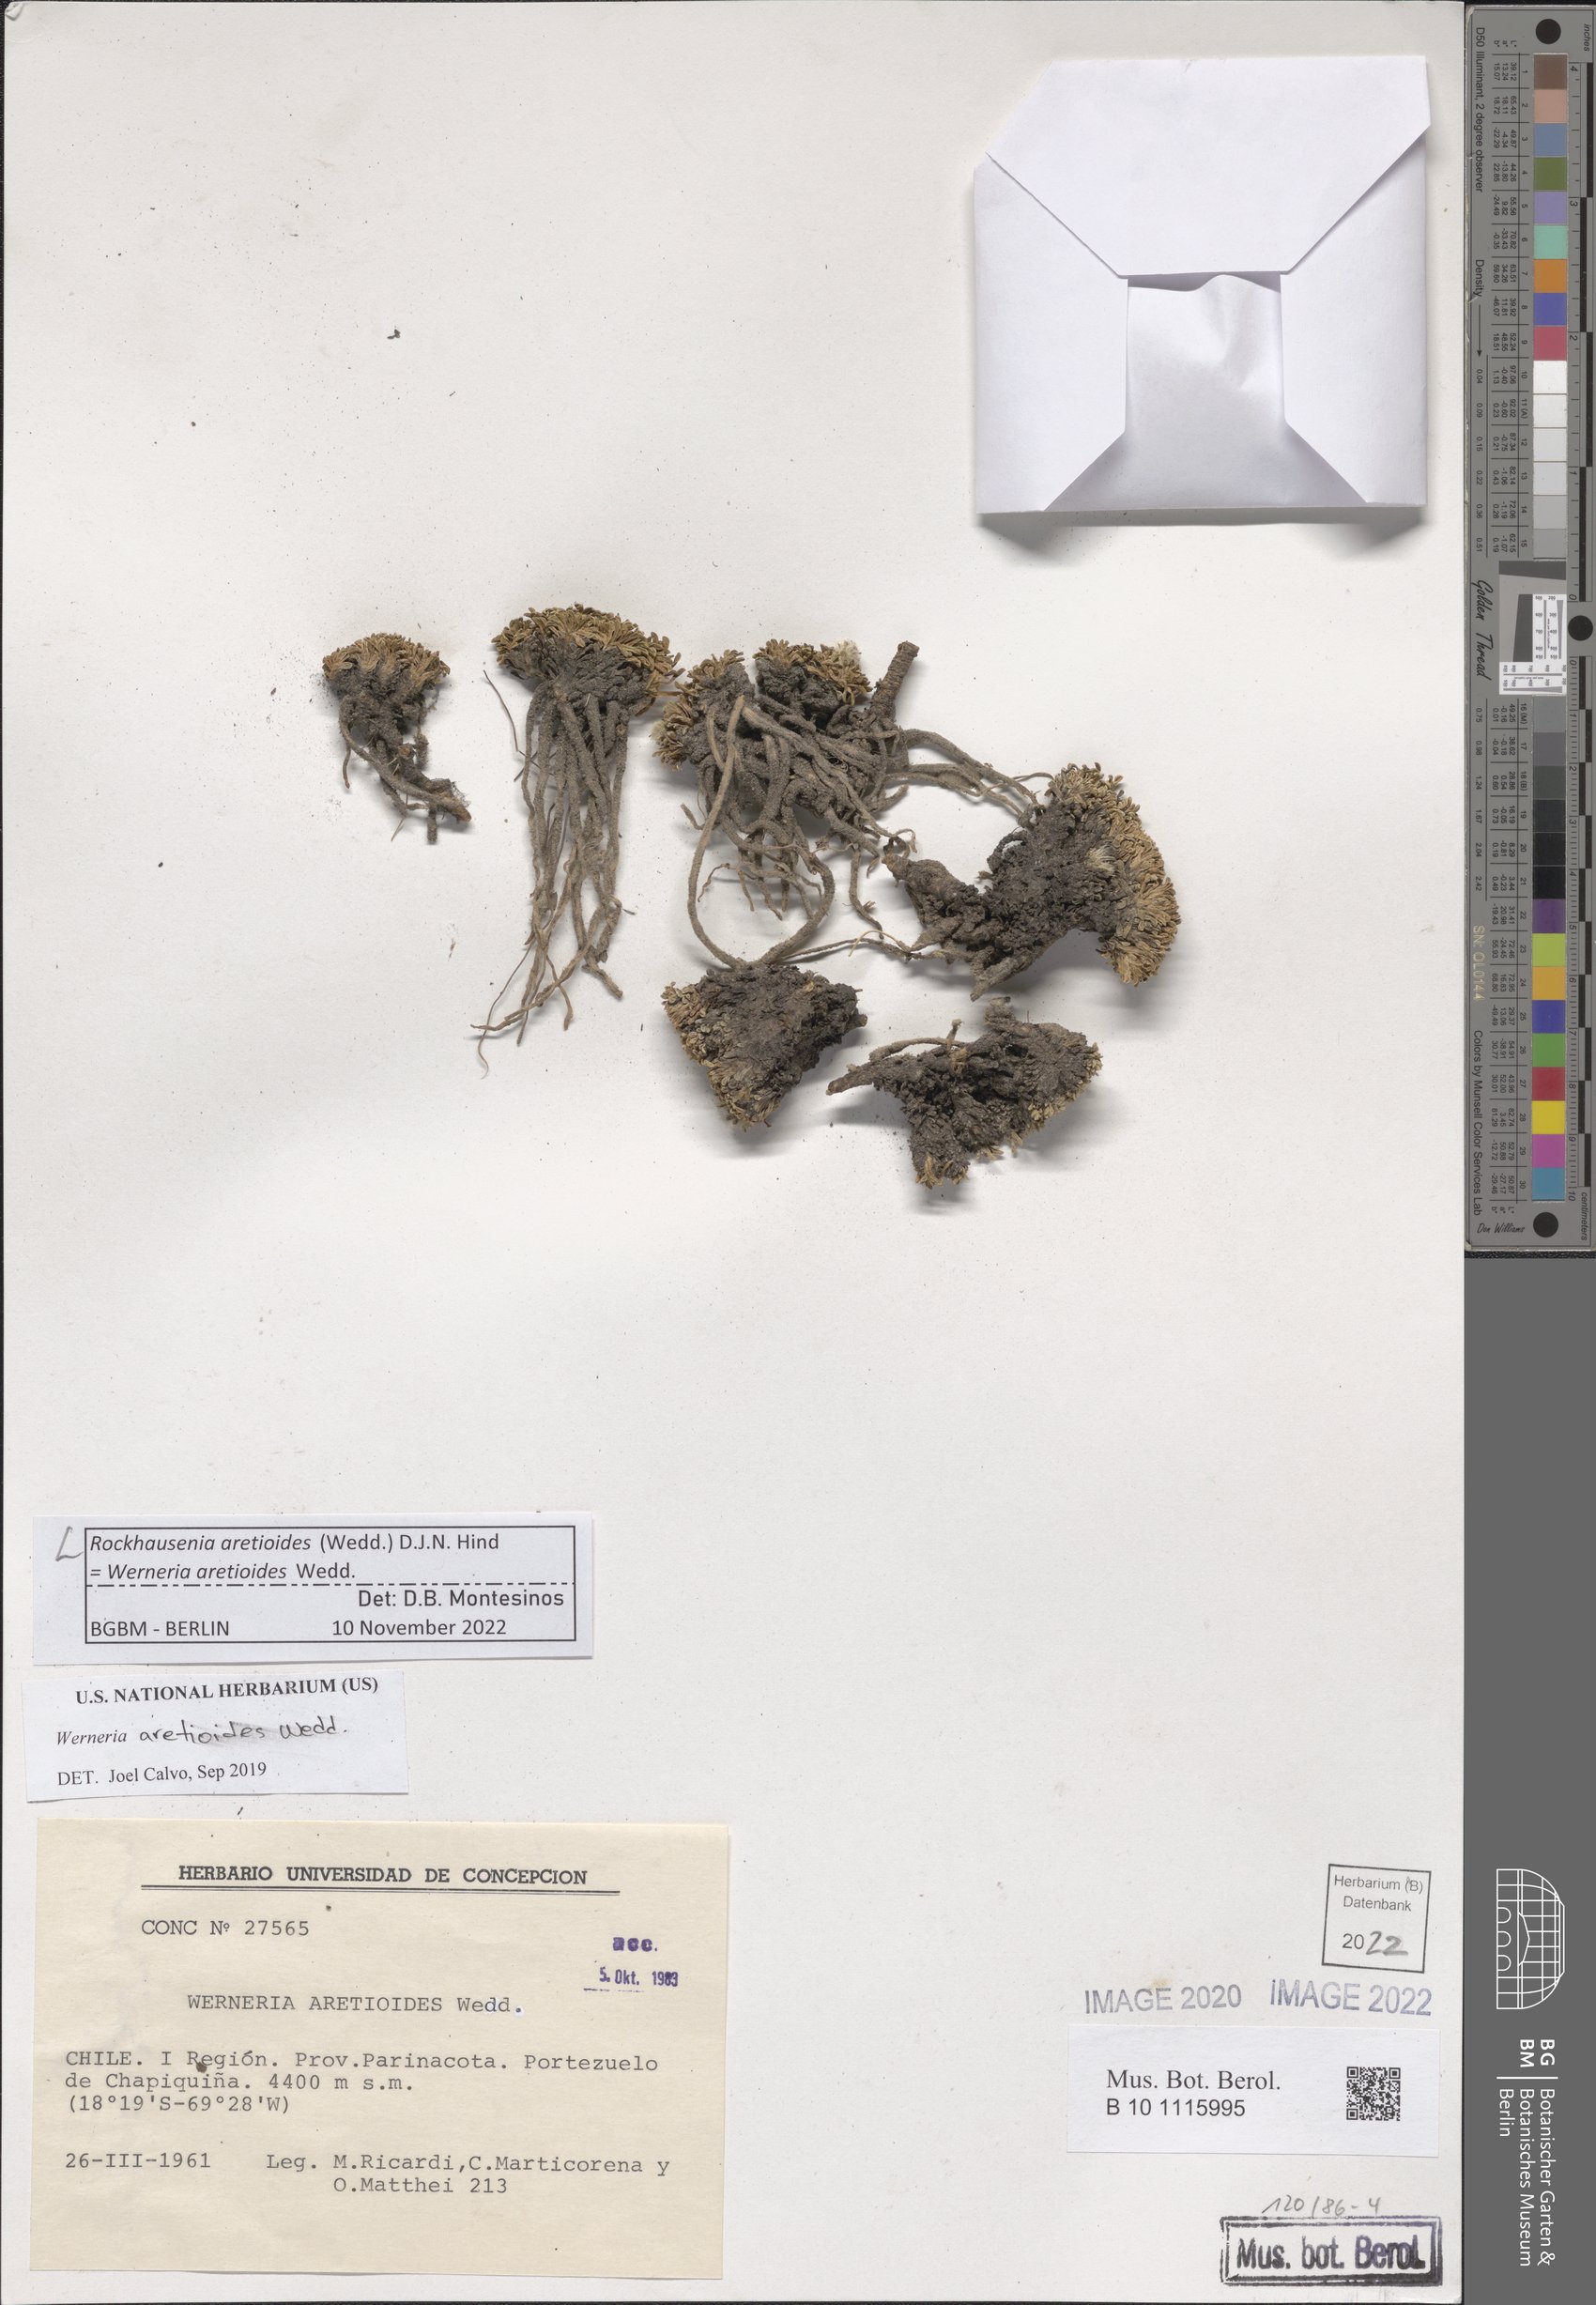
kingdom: Plantae
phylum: Tracheophyta
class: Magnoliopsida
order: Asterales
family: Asteraceae
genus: Rockhausenia
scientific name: Rockhausenia aretioides
